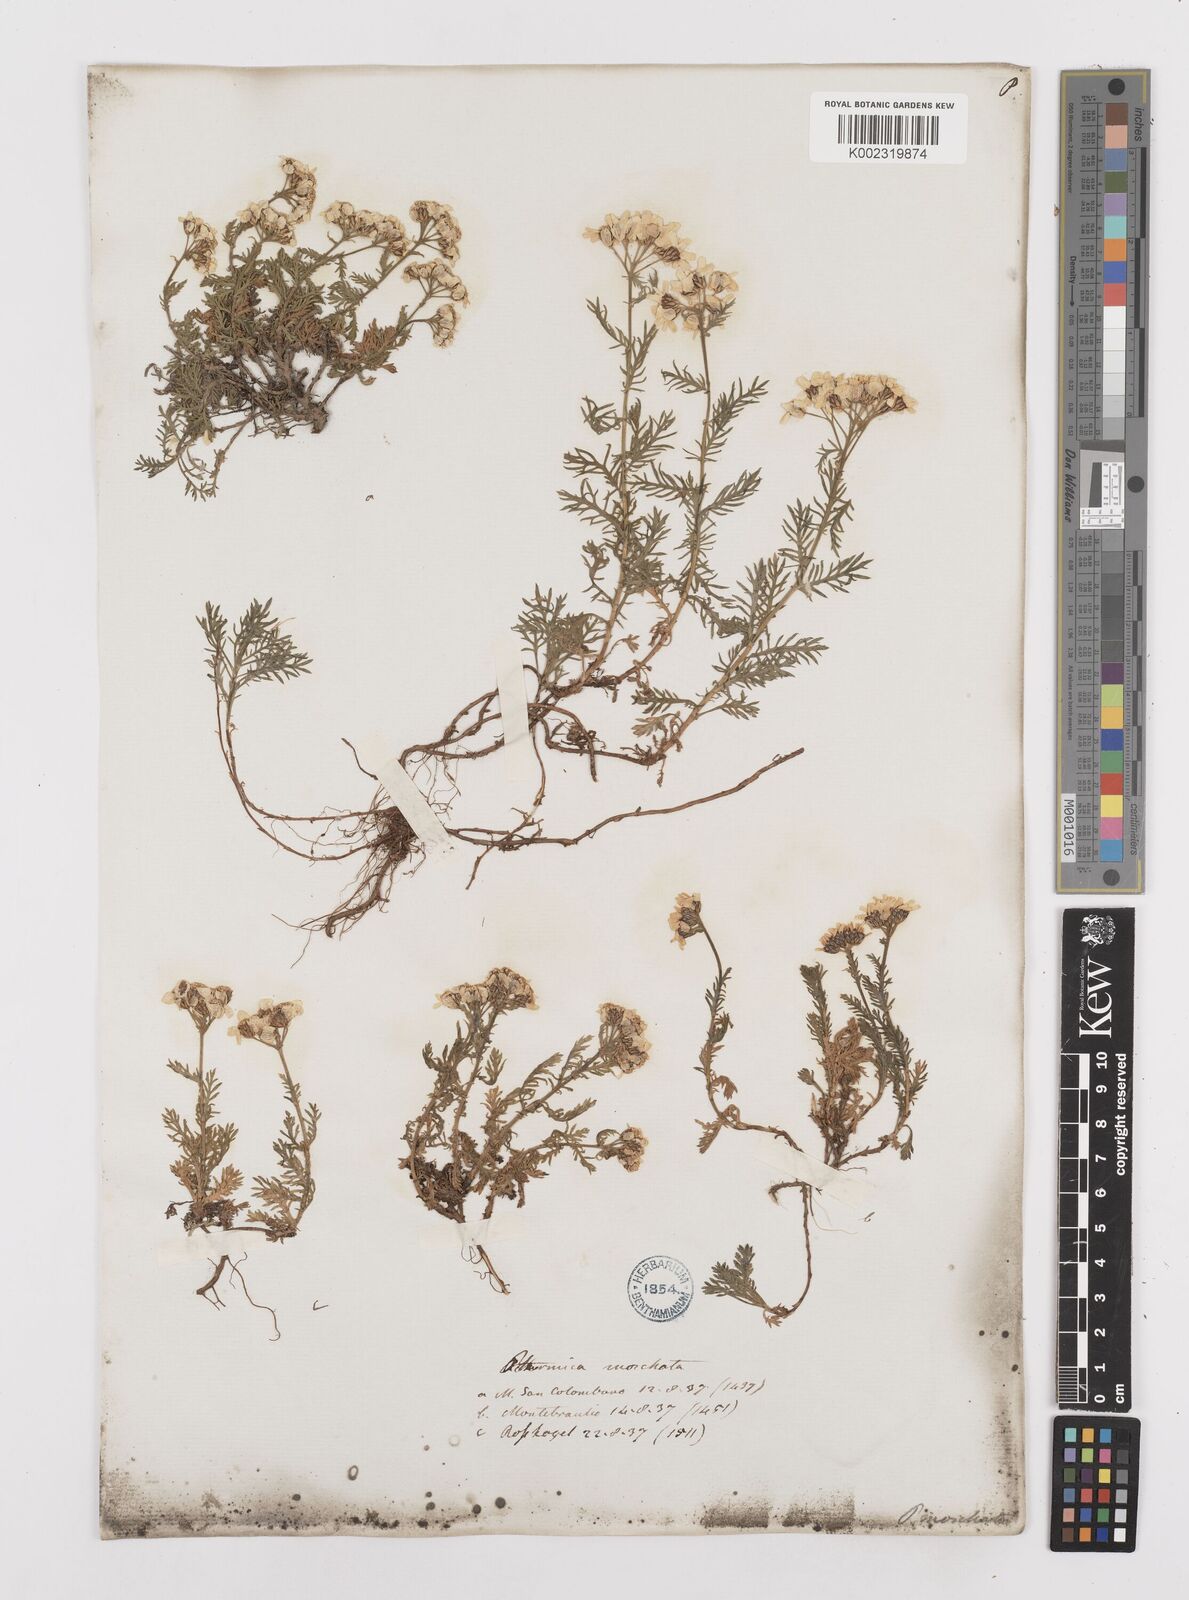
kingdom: Plantae
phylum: Tracheophyta
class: Magnoliopsida
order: Asterales
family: Asteraceae
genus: Achillea
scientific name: Achillea erba-rotta
